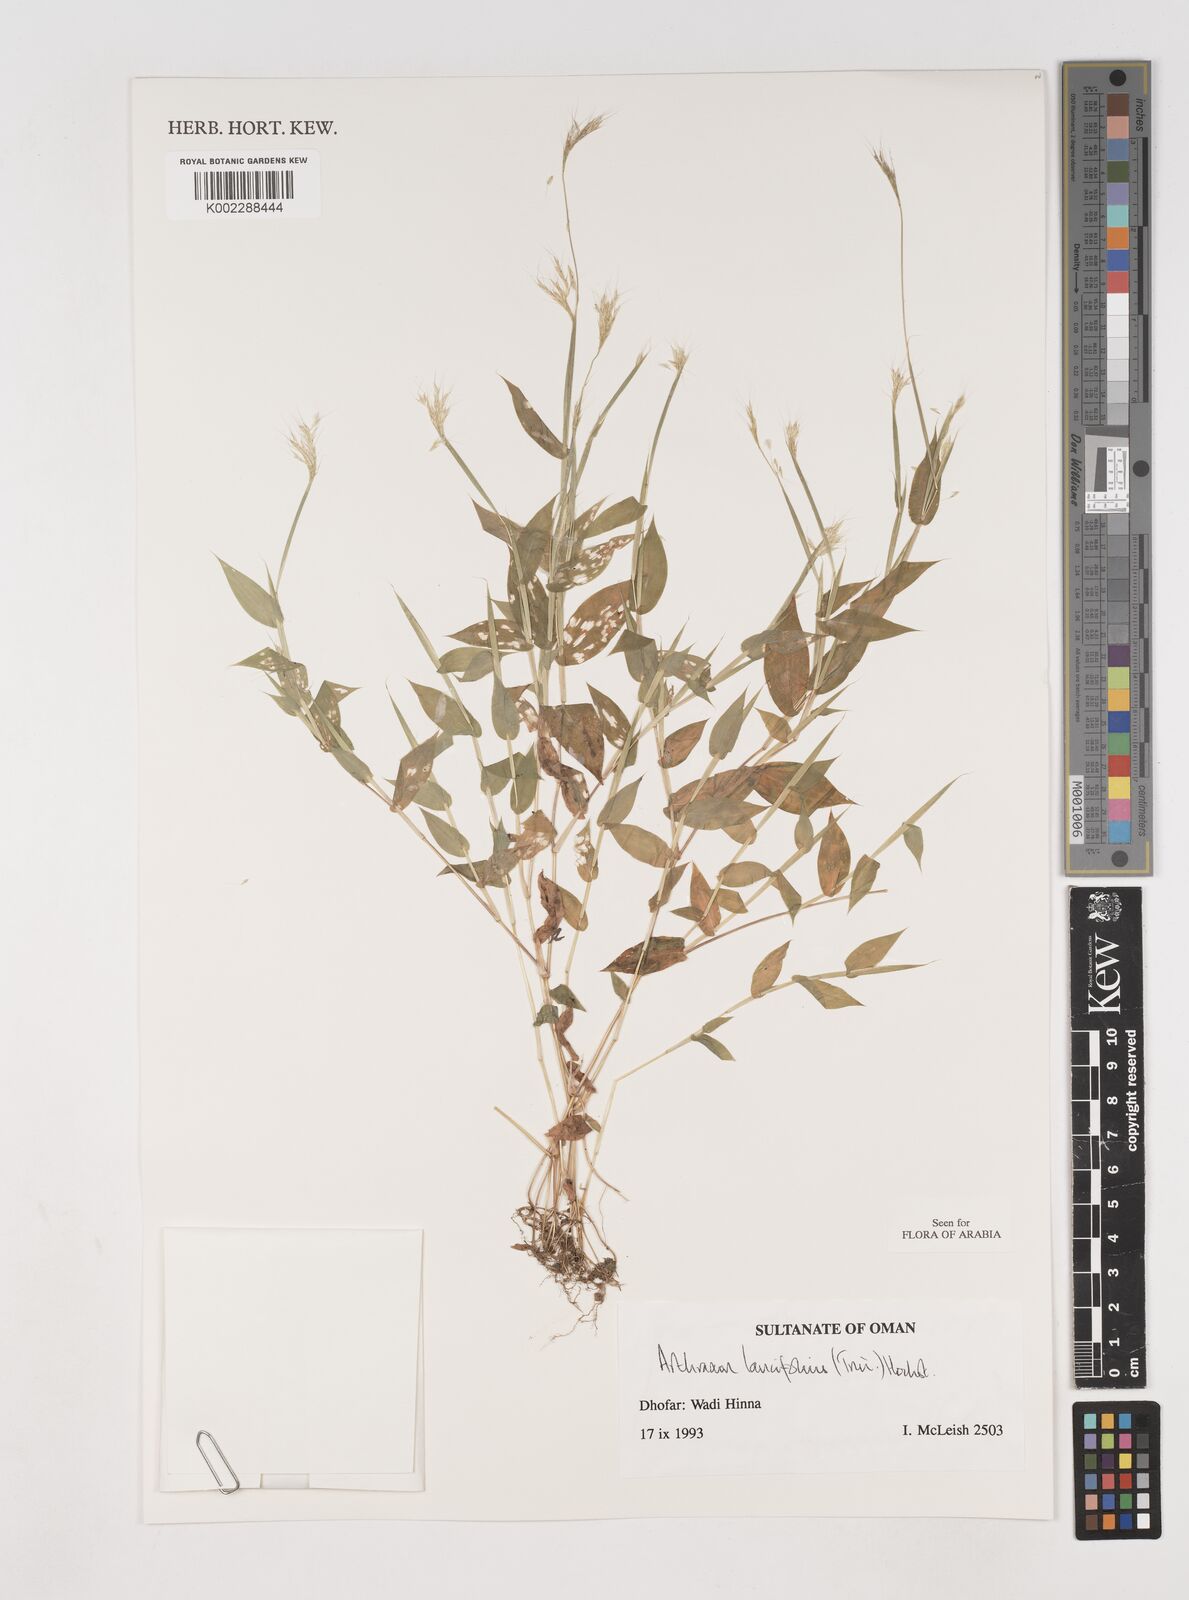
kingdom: Plantae
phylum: Tracheophyta
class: Liliopsida
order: Poales
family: Poaceae
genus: Arthraxon
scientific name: Arthraxon lancifolius
